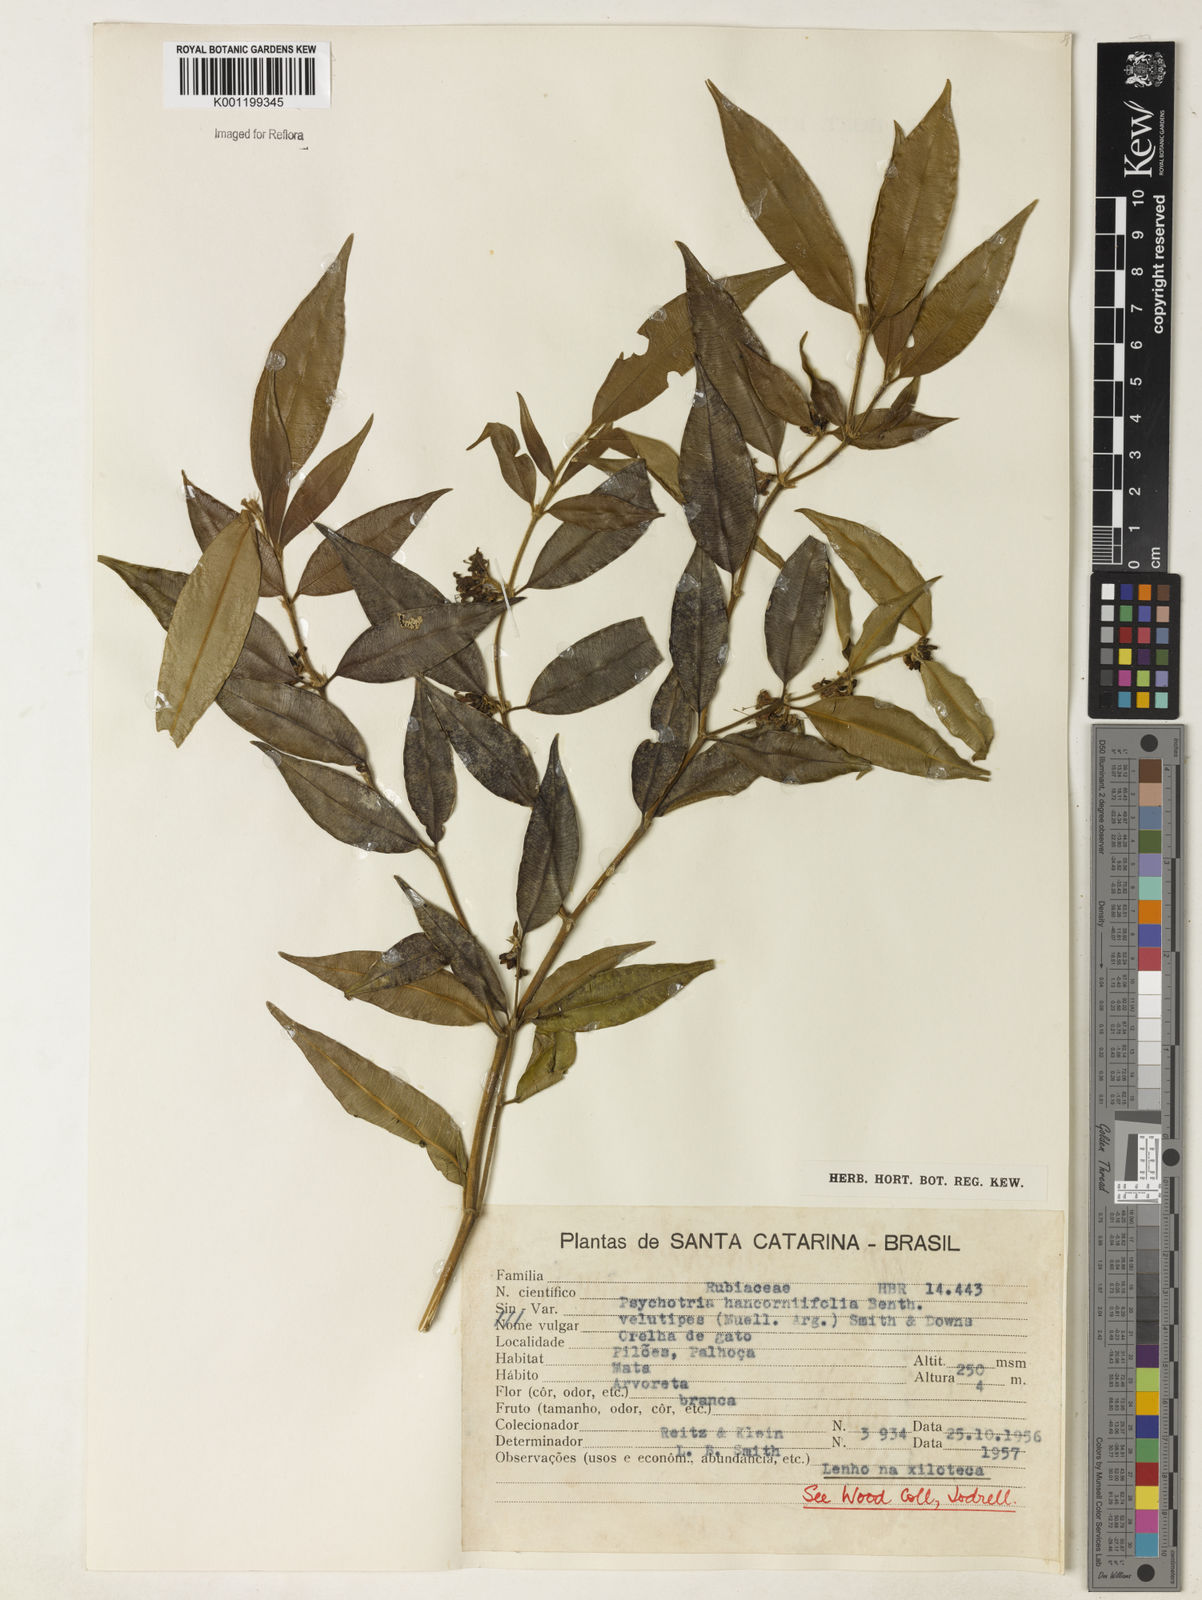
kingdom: Plantae
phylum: Tracheophyta
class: Magnoliopsida
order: Gentianales
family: Rubiaceae
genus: Rudgea
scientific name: Rudgea sessilis
